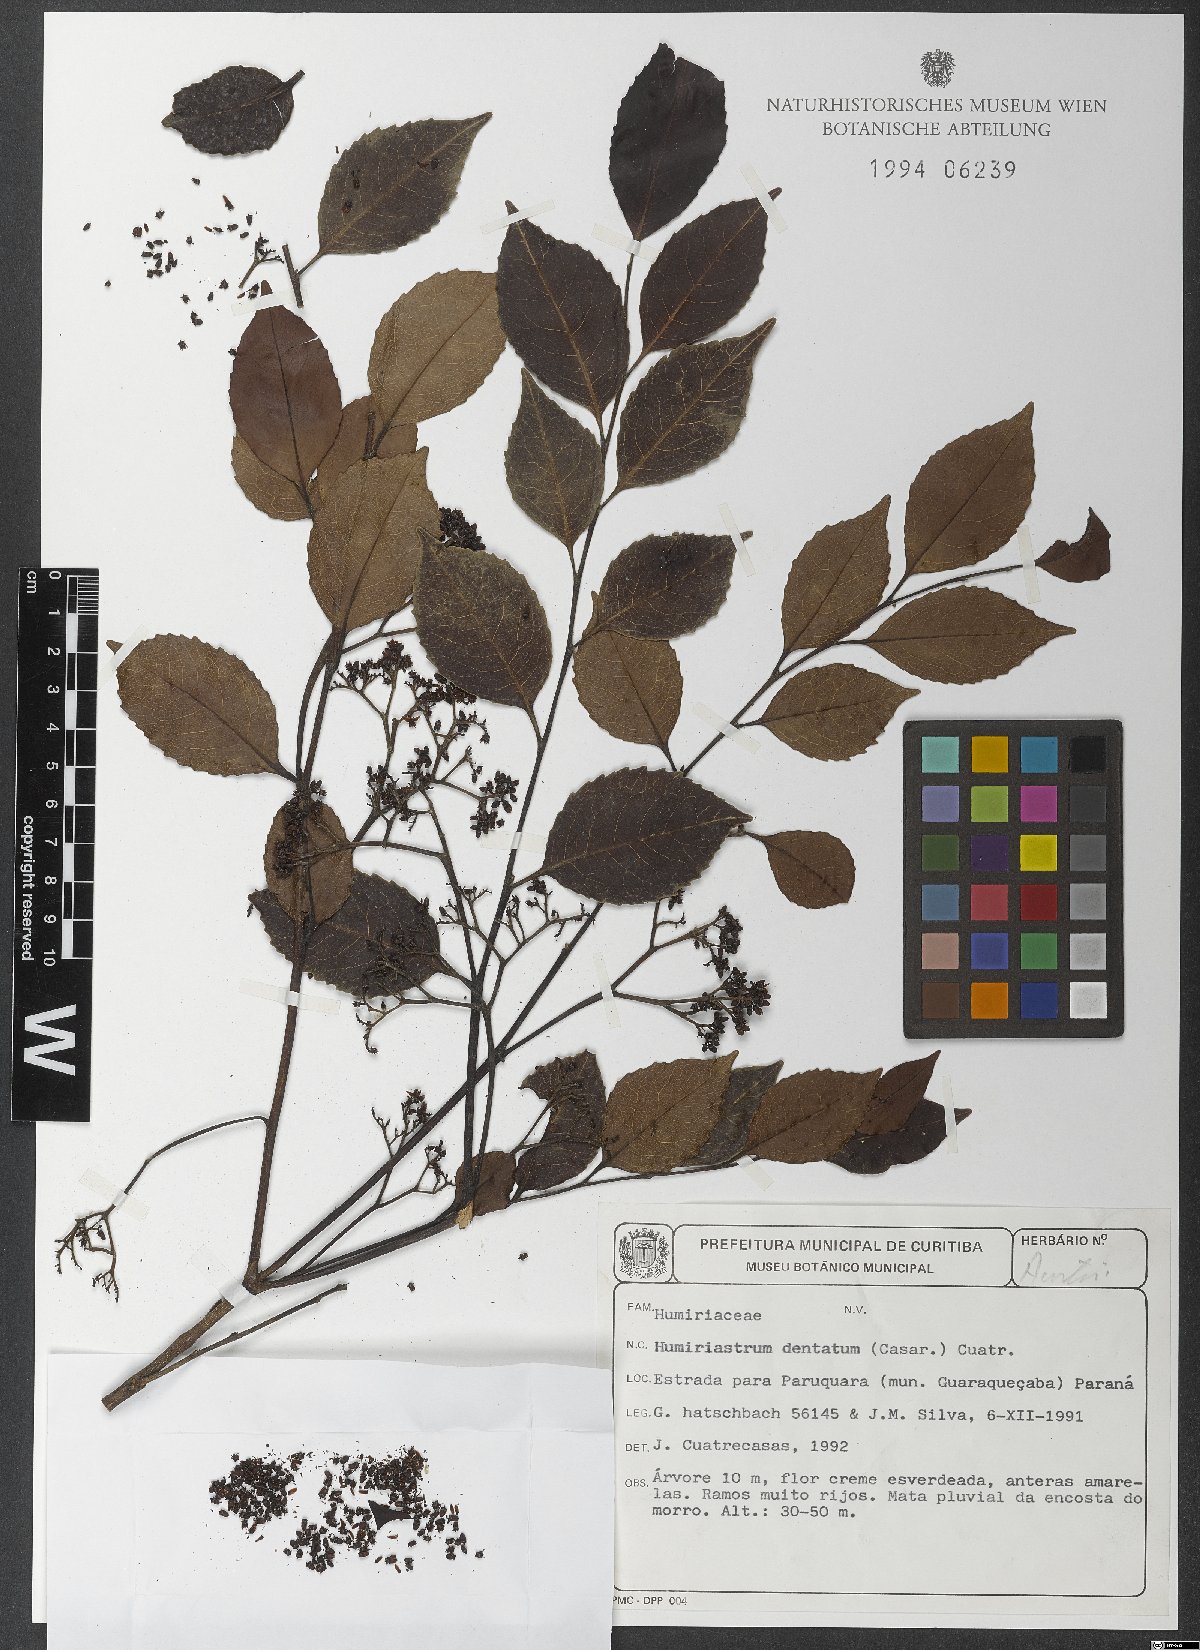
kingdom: Plantae
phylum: Tracheophyta
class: Magnoliopsida
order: Malpighiales
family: Humiriaceae
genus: Humiriastrum
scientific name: Humiriastrum dentatum
